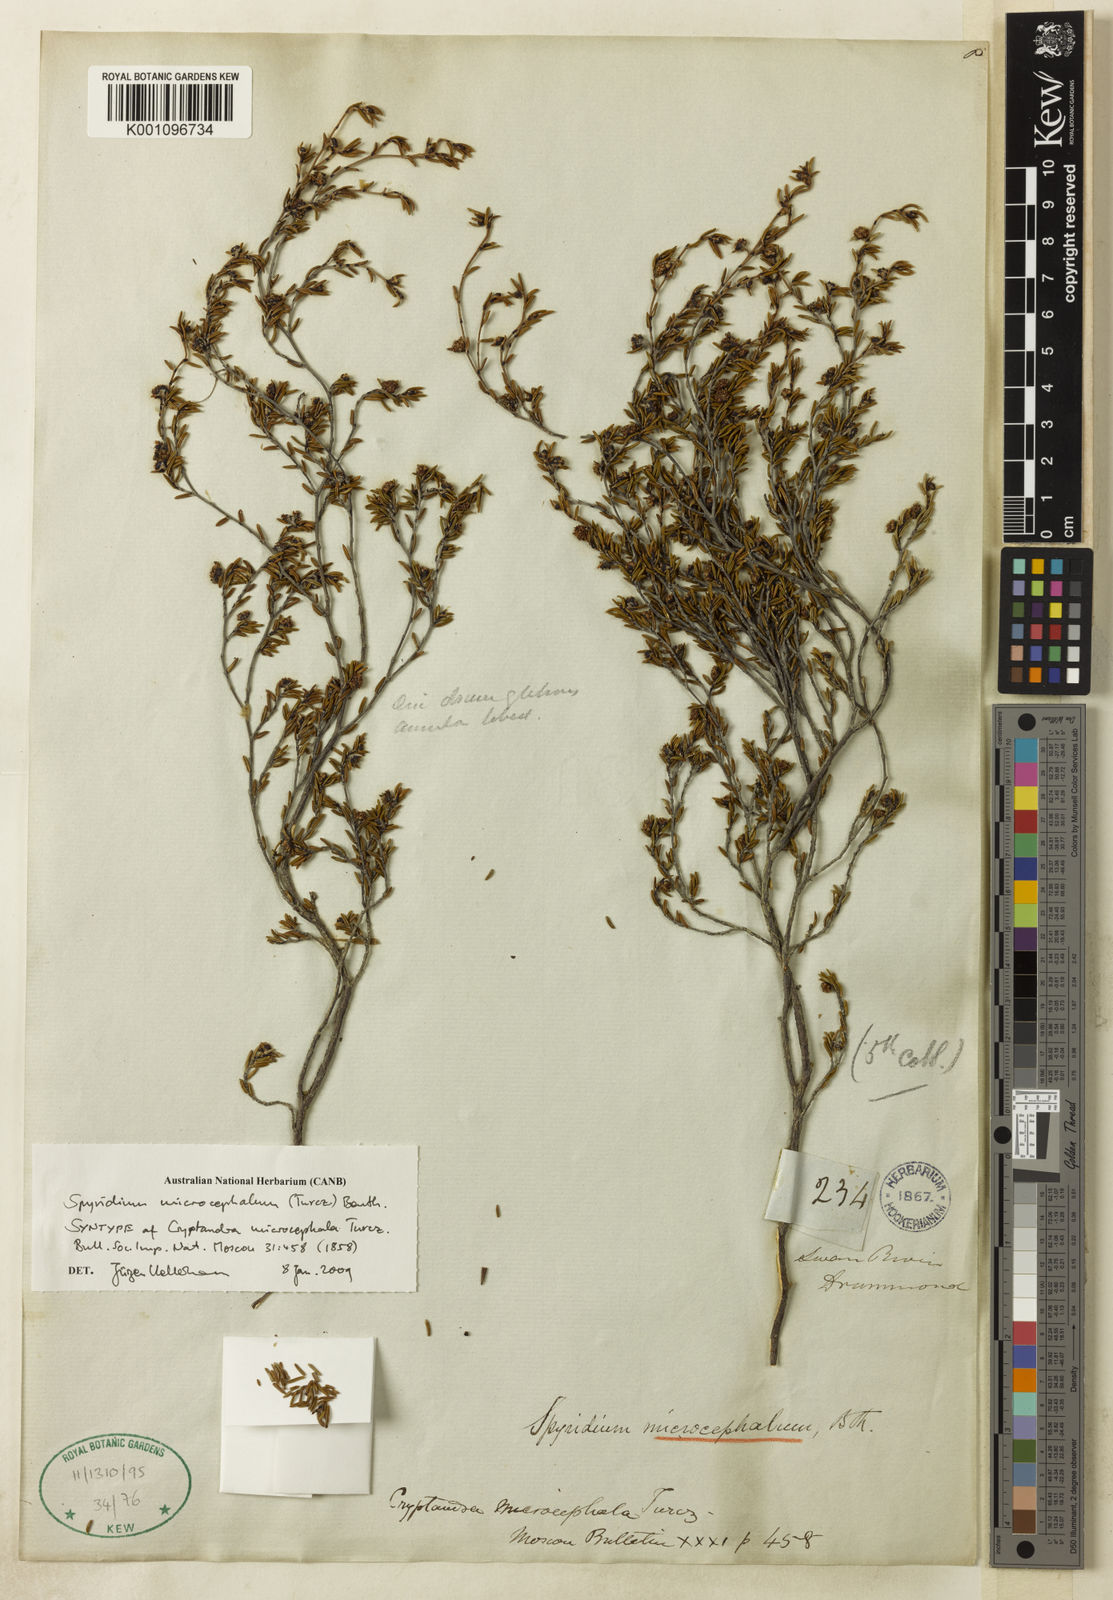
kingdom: Plantae
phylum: Tracheophyta
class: Magnoliopsida
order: Rosales
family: Rhamnaceae
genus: Spyridium
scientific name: Spyridium microcephalum
